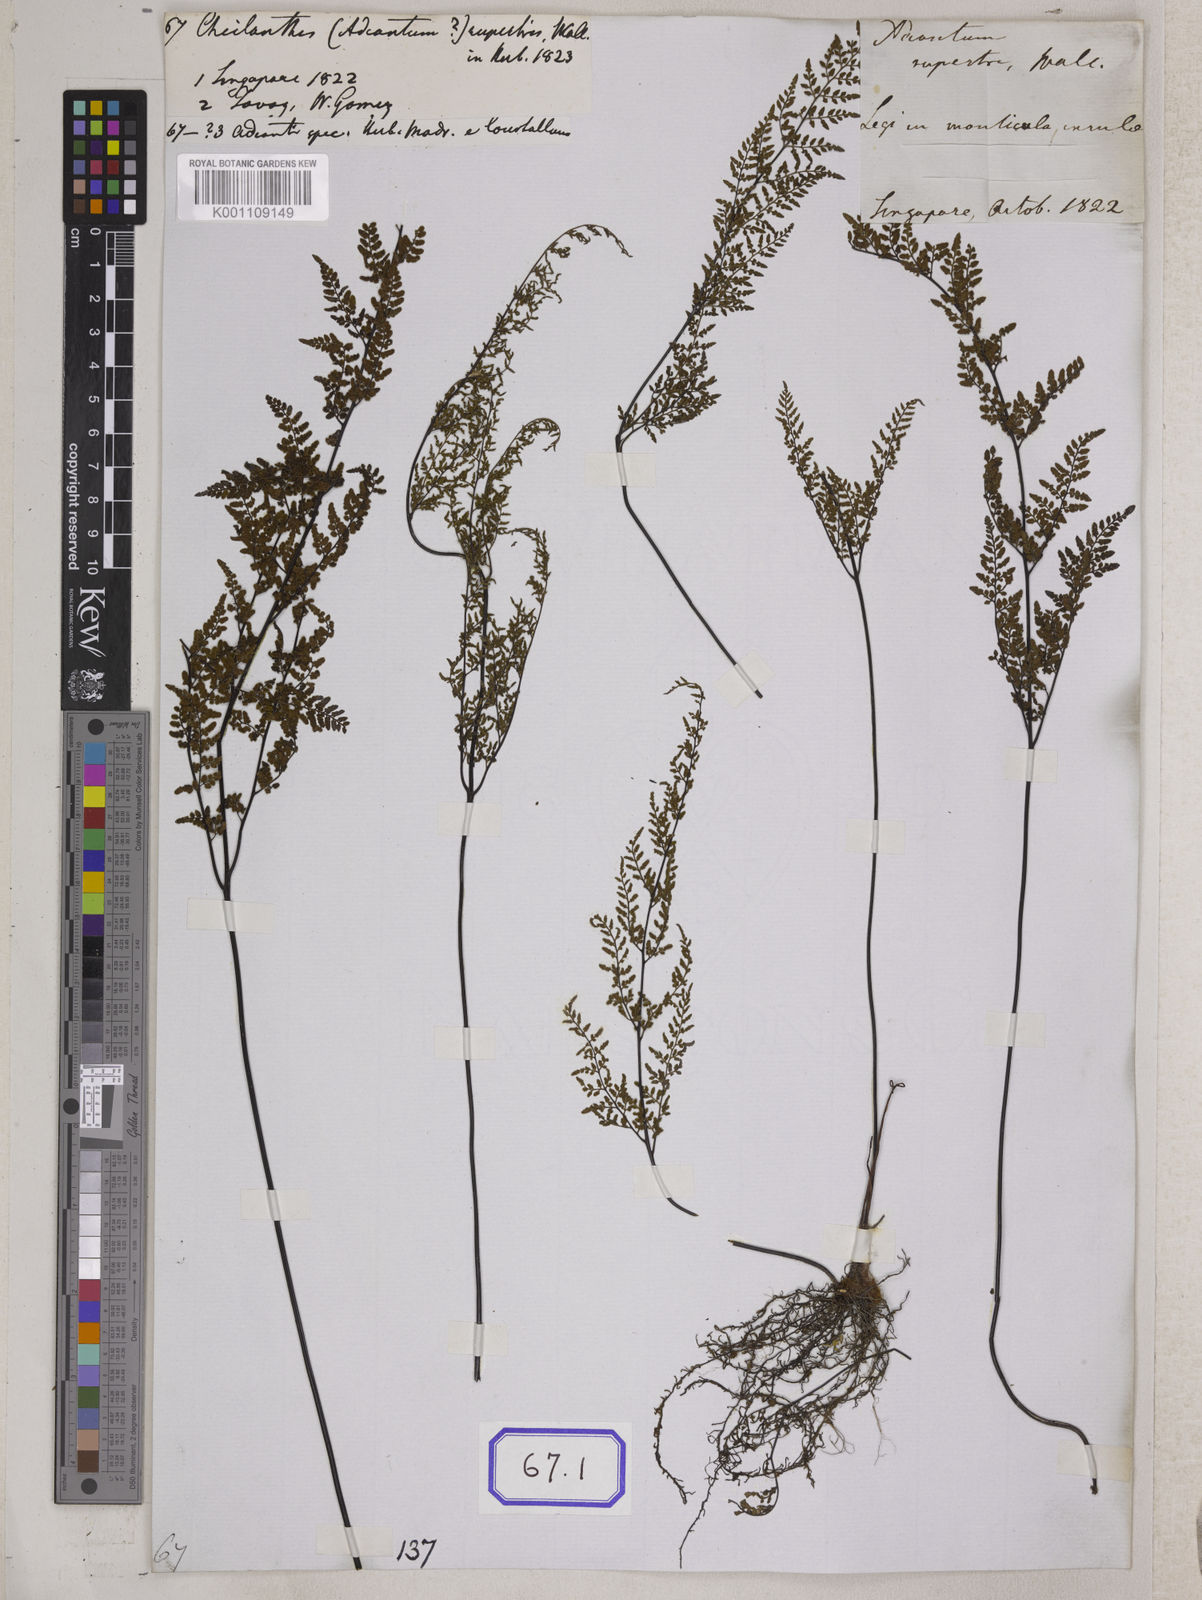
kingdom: Plantae
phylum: Tracheophyta
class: Polypodiopsida
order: Polypodiales
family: Pteridaceae
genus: Cheilanthes
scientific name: Cheilanthes tenuifolia
